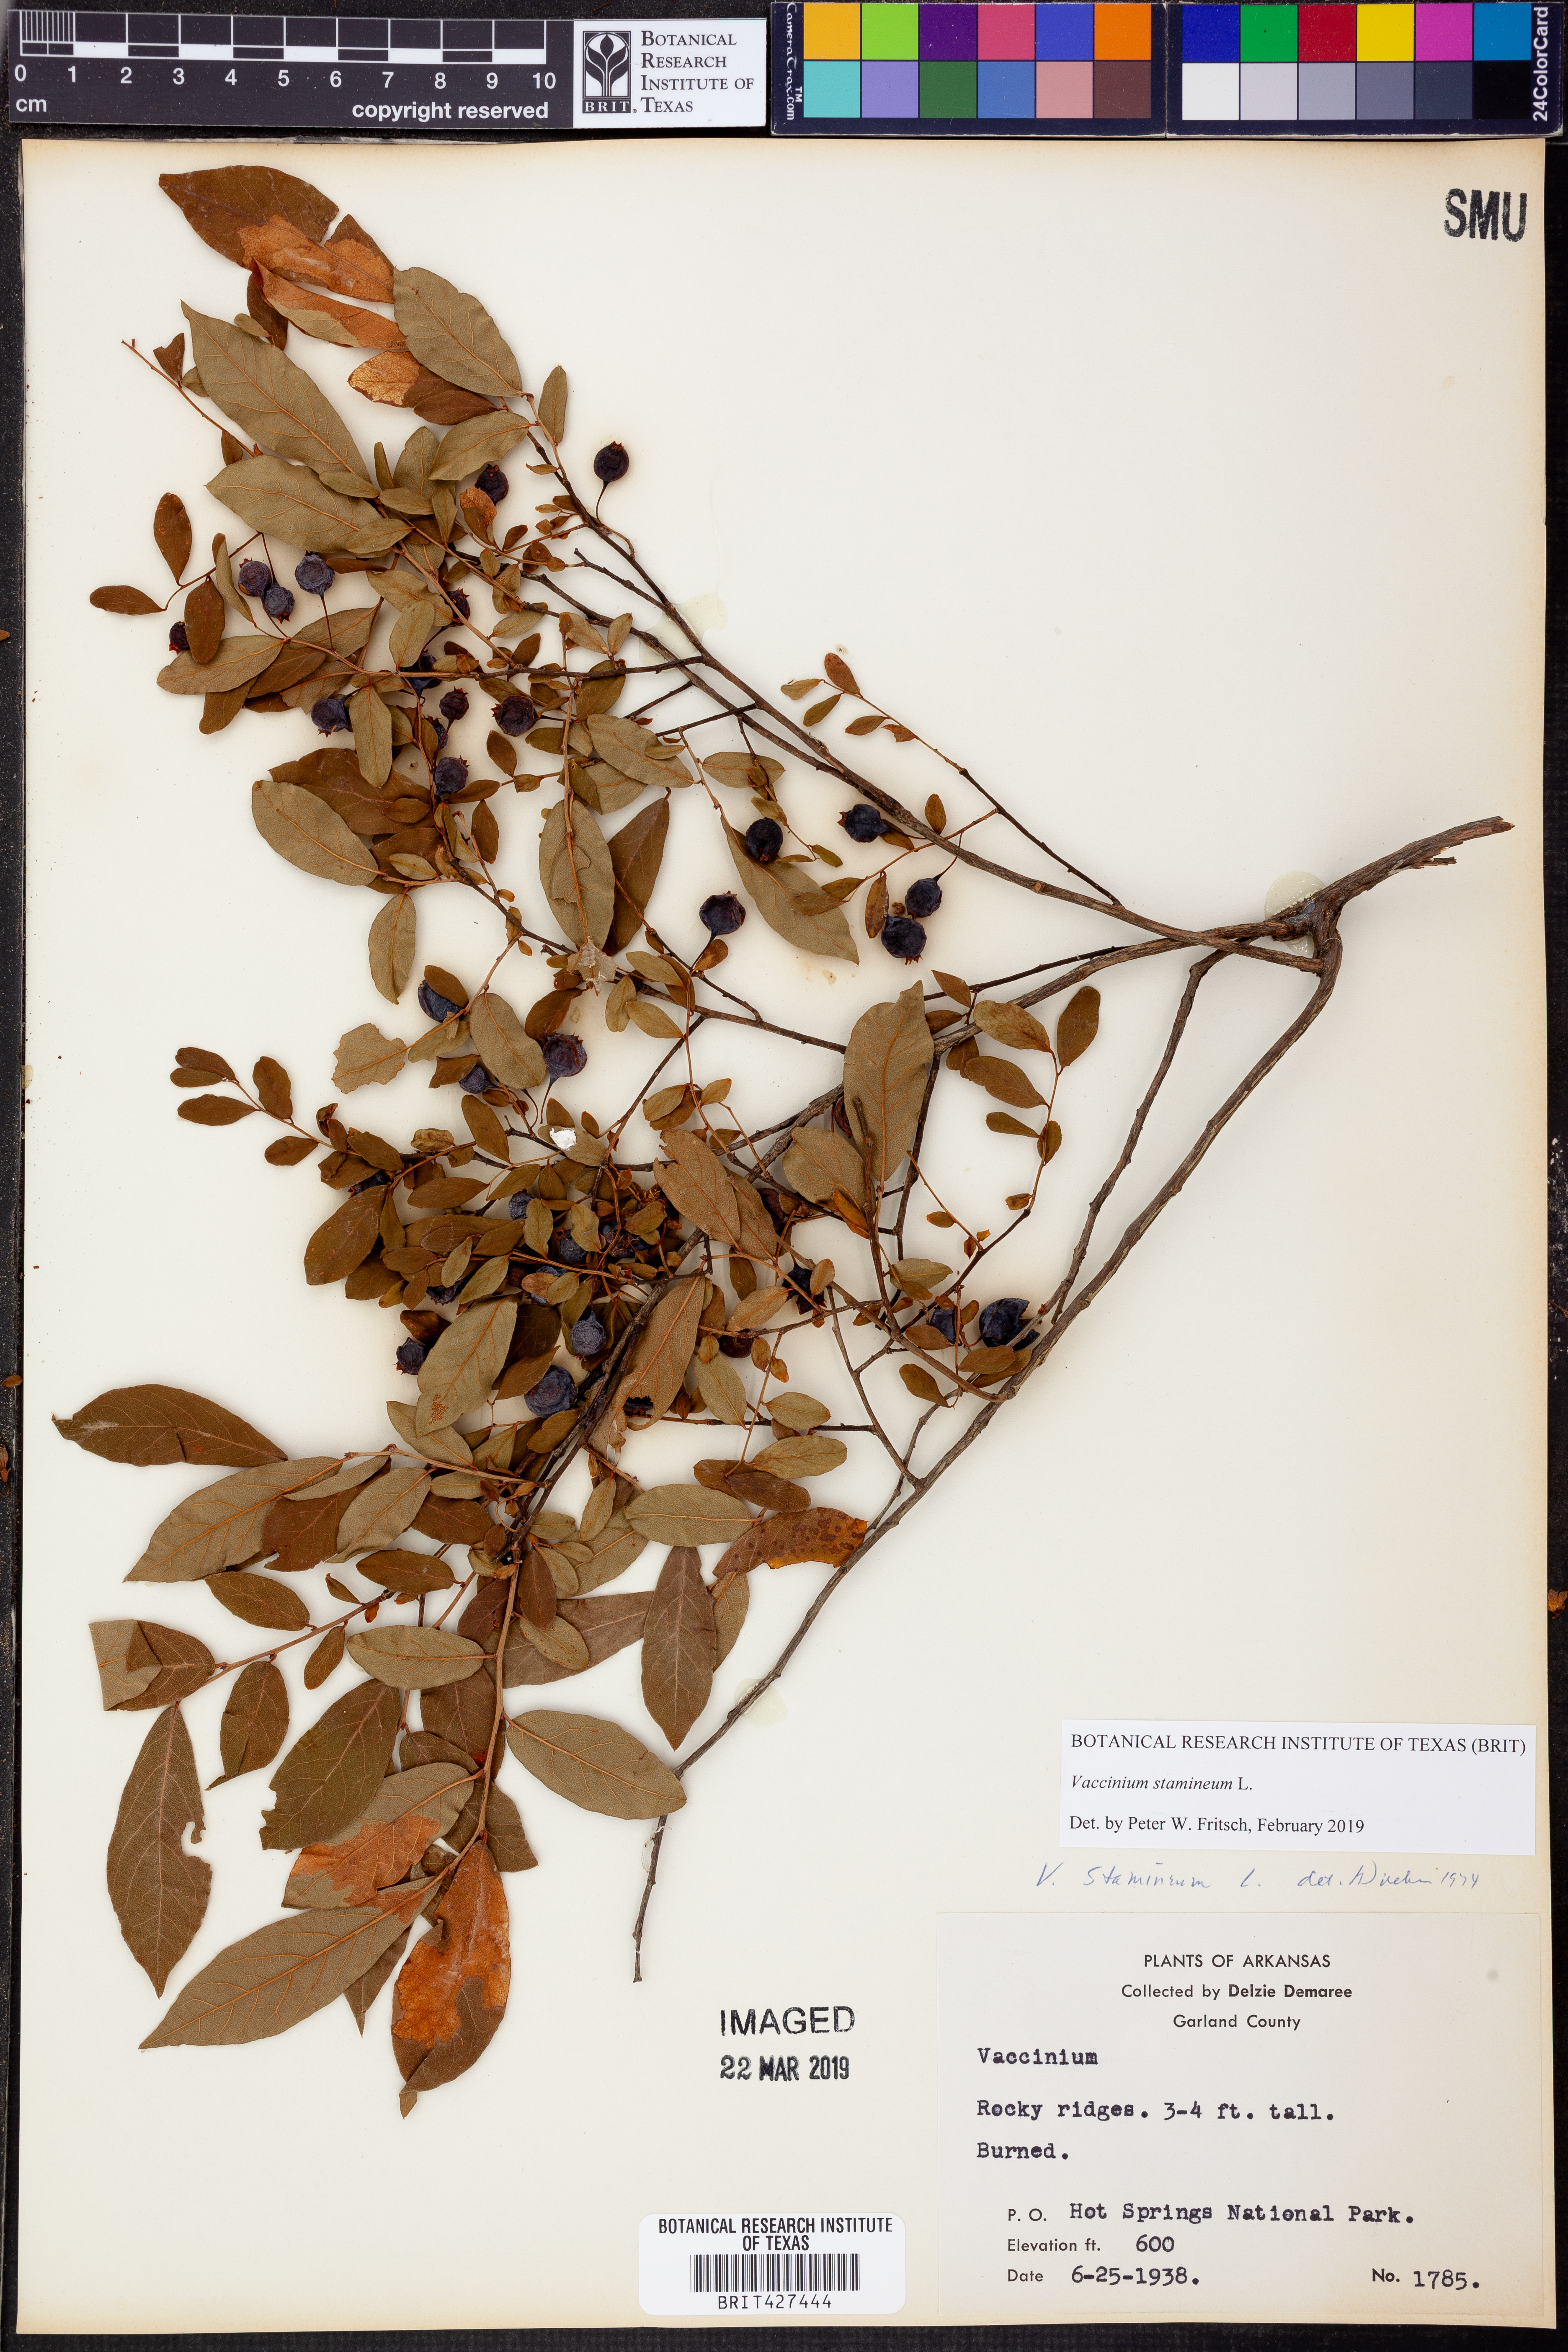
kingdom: Plantae
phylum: Tracheophyta
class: Magnoliopsida
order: Ericales
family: Ericaceae
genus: Vaccinium
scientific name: Vaccinium stamineum
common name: Deerberry
